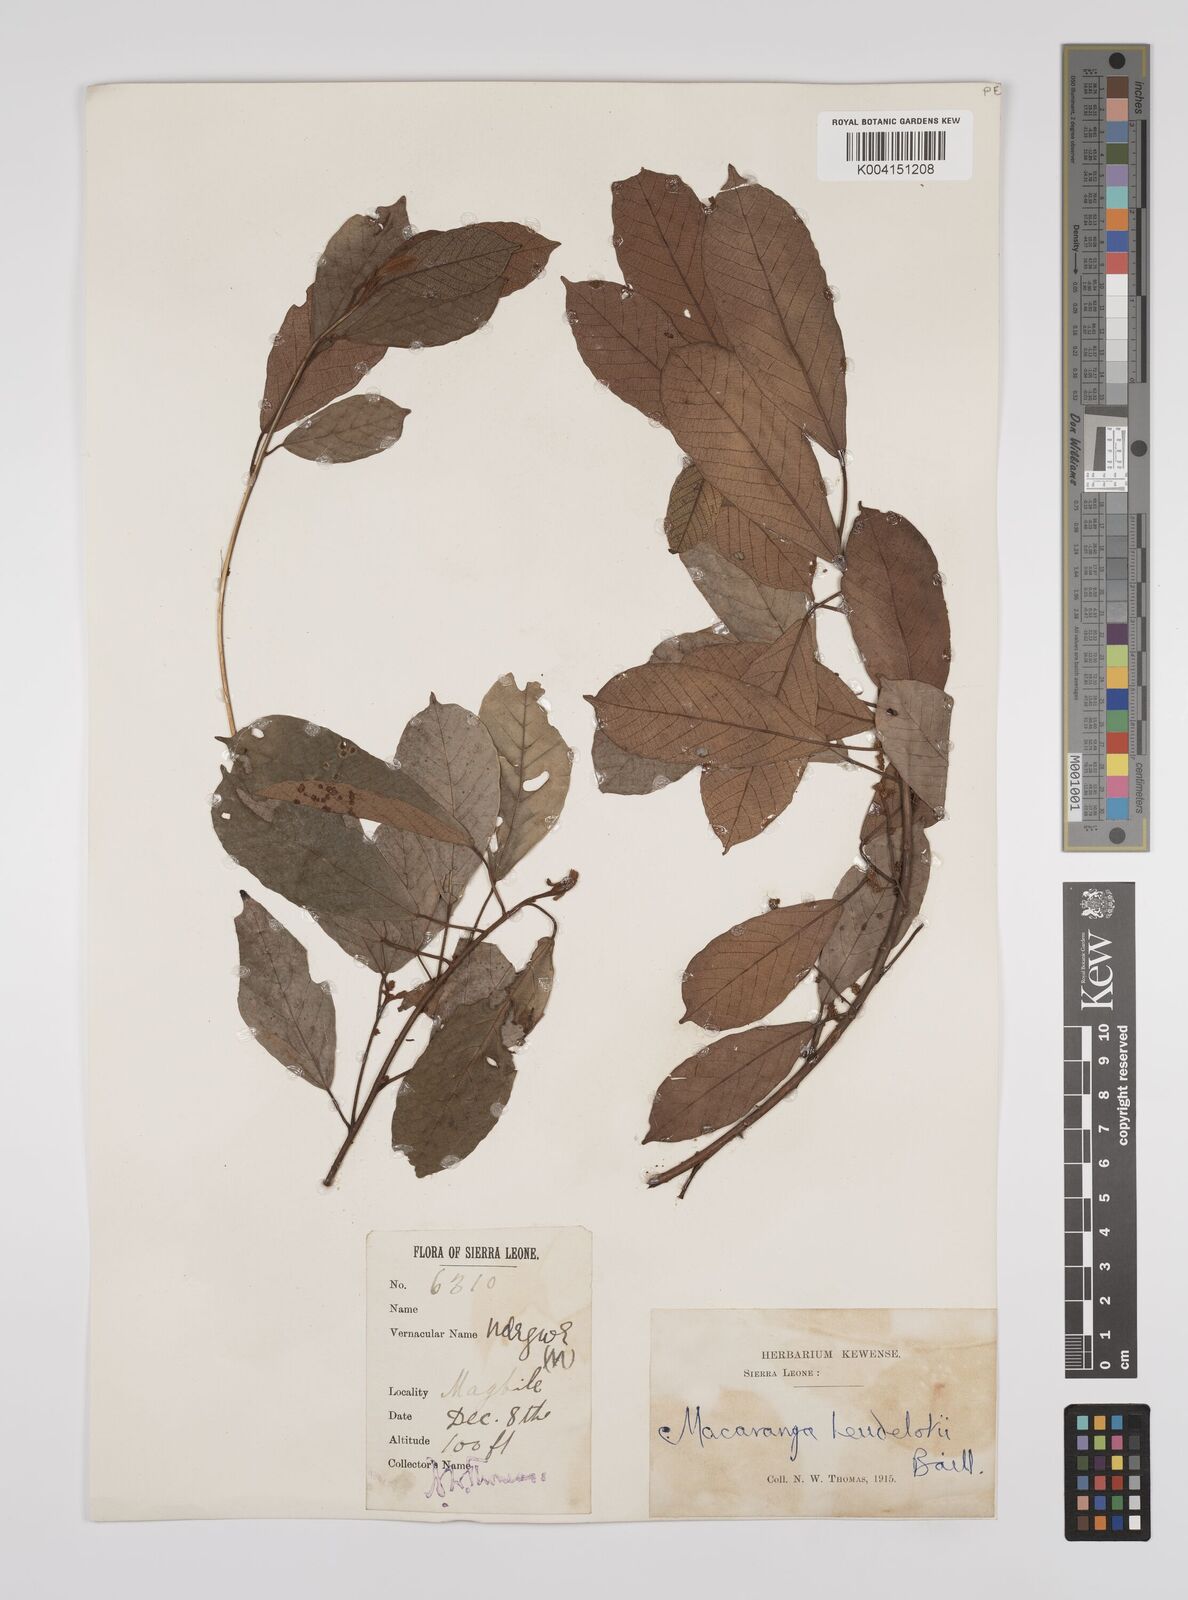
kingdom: Plantae
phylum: Tracheophyta
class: Magnoliopsida
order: Malpighiales
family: Euphorbiaceae
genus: Macaranga
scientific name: Macaranga heudelotii
